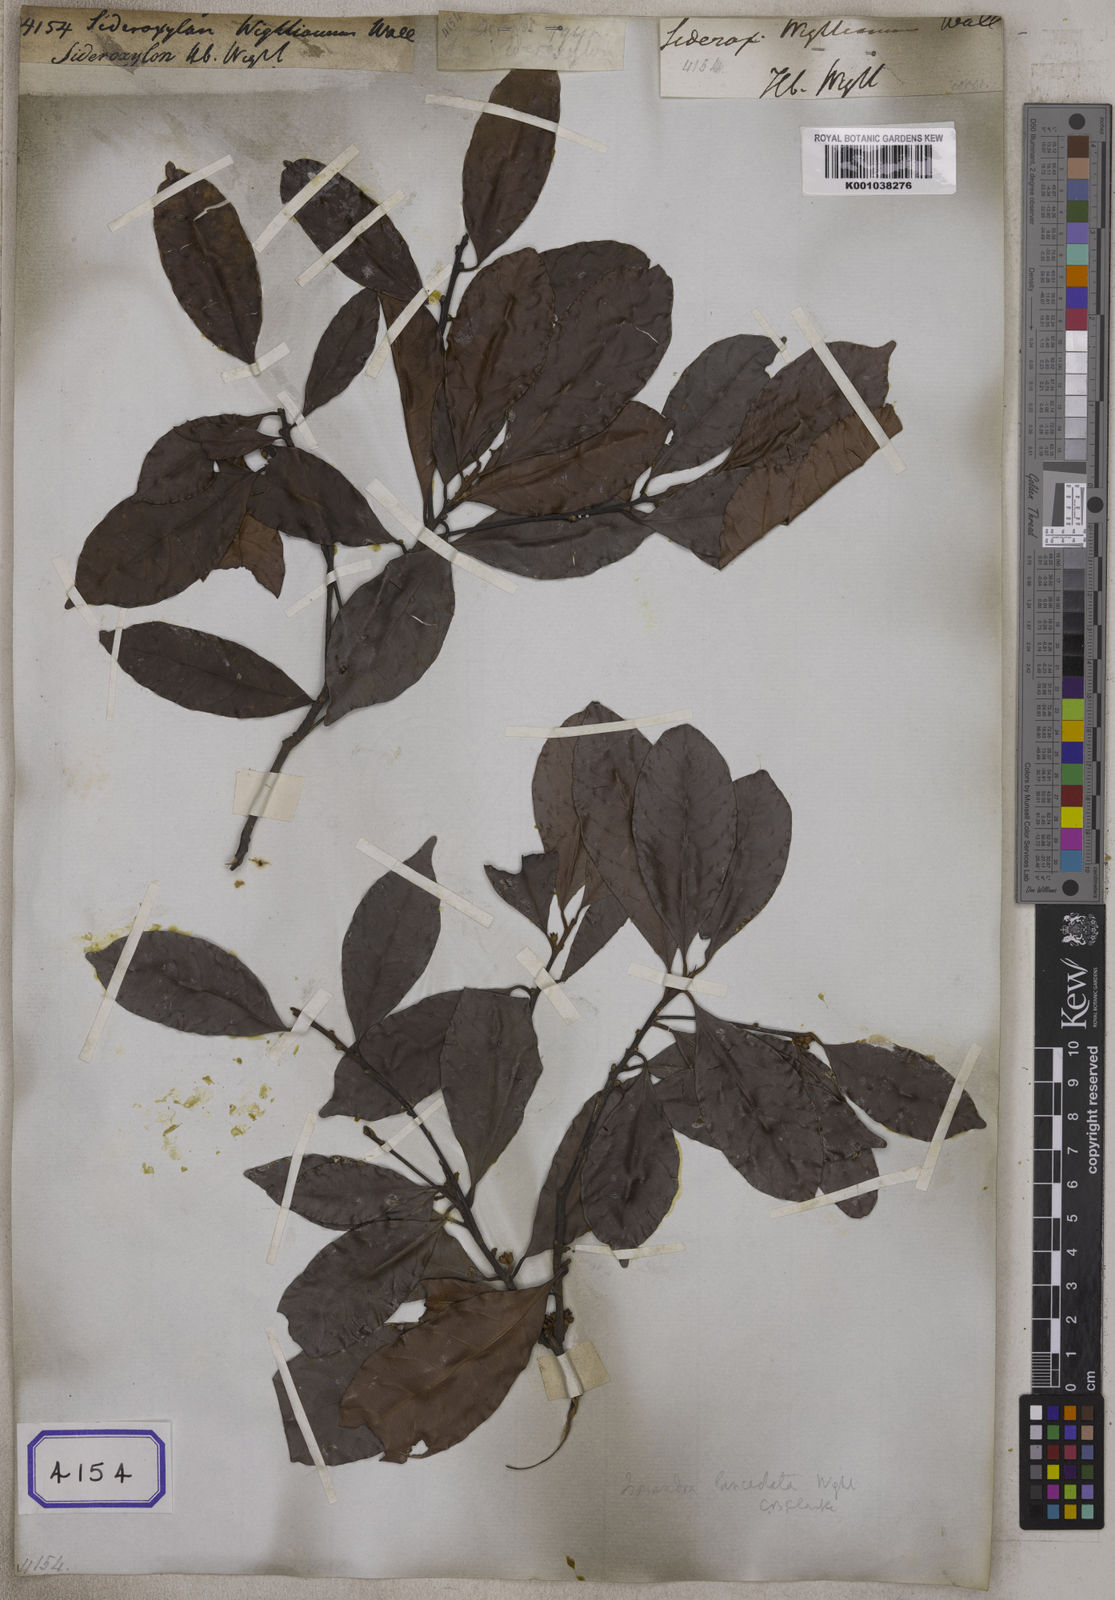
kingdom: Plantae
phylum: Tracheophyta
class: Magnoliopsida
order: Ericales
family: Sapotaceae
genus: Xantolis
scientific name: Xantolis tomentosa
